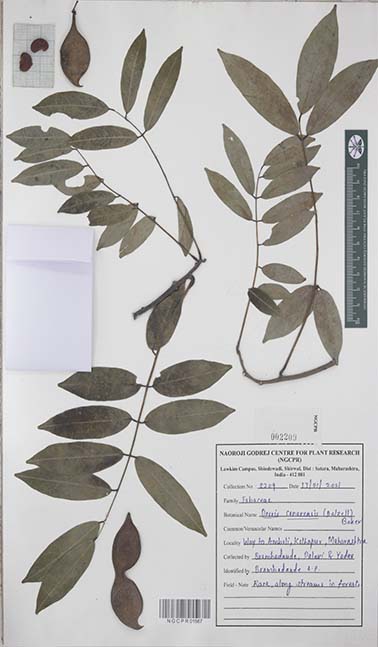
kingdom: Plantae
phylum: Tracheophyta
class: Magnoliopsida
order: Fabales
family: Fabaceae
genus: Derris
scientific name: Derris canarensis
